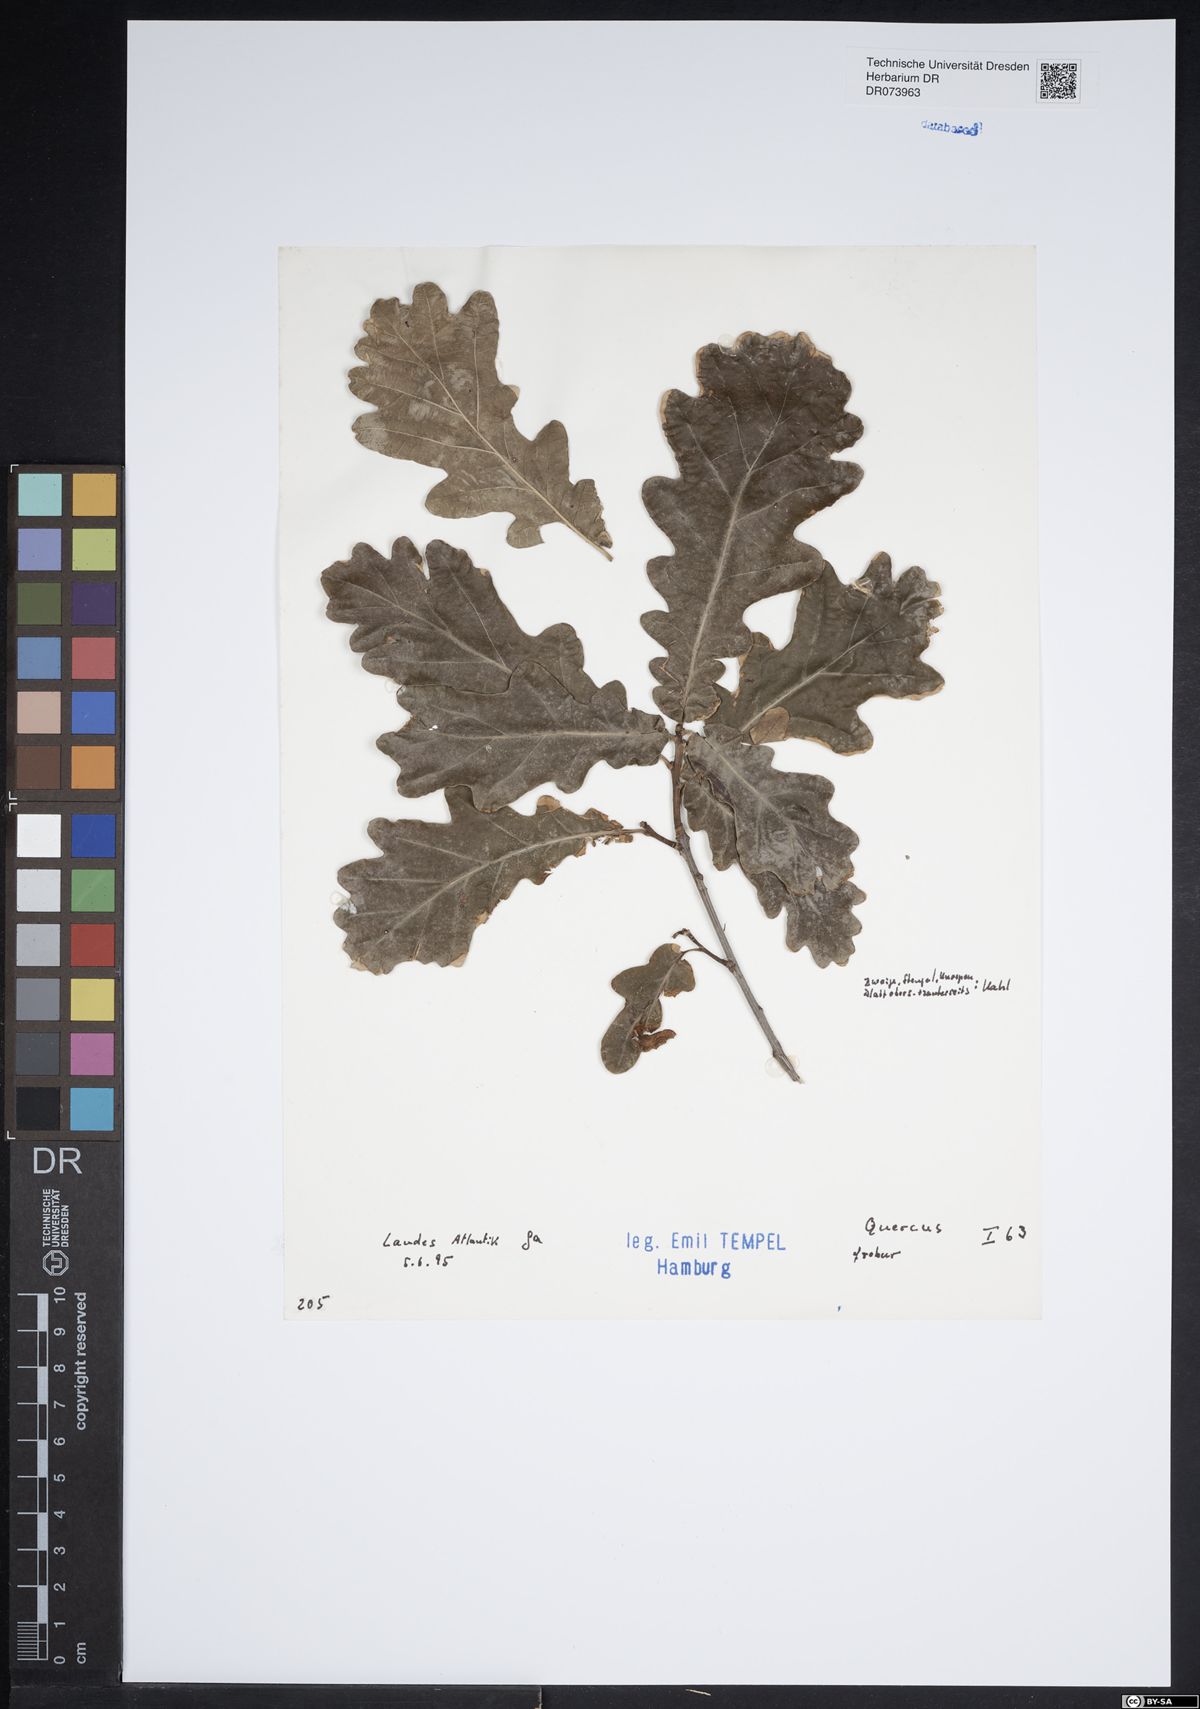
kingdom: Plantae
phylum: Tracheophyta
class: Magnoliopsida
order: Fagales
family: Fagaceae
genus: Quercus
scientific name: Quercus robur
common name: Pedunculate oak
